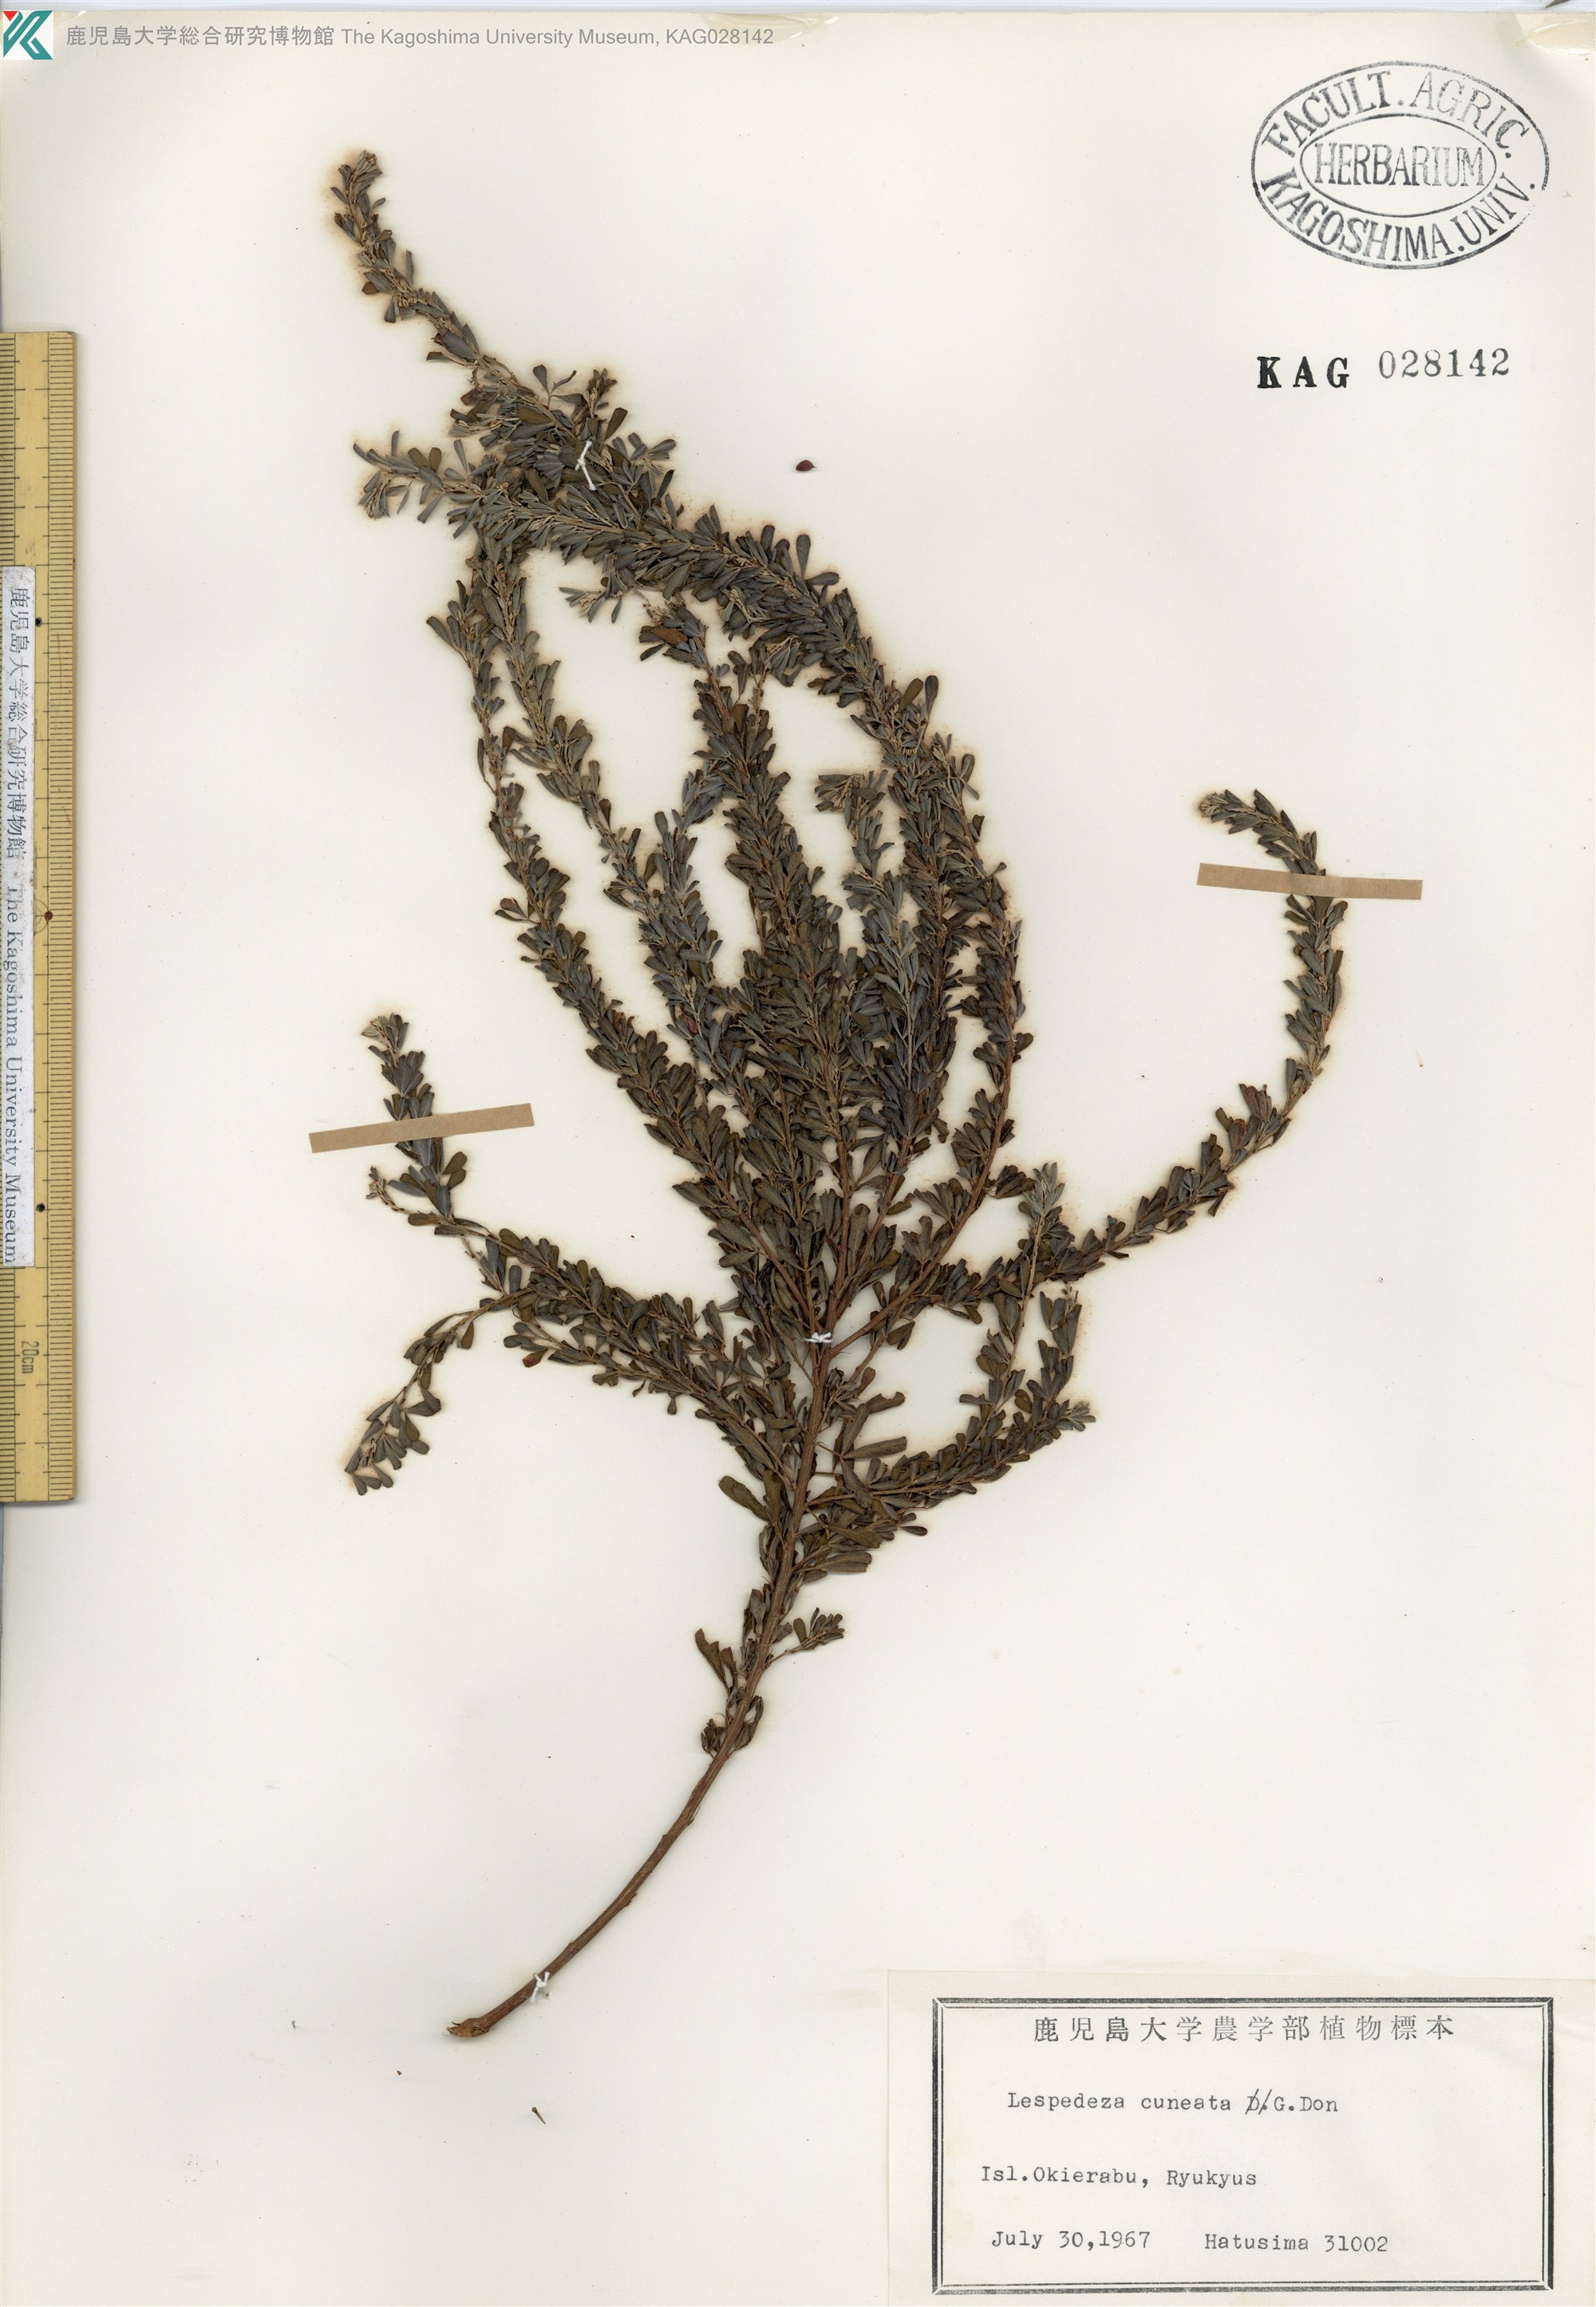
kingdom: Plantae
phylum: Tracheophyta
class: Magnoliopsida
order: Fabales
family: Fabaceae
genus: Lespedeza
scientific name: Lespedeza cuneata
